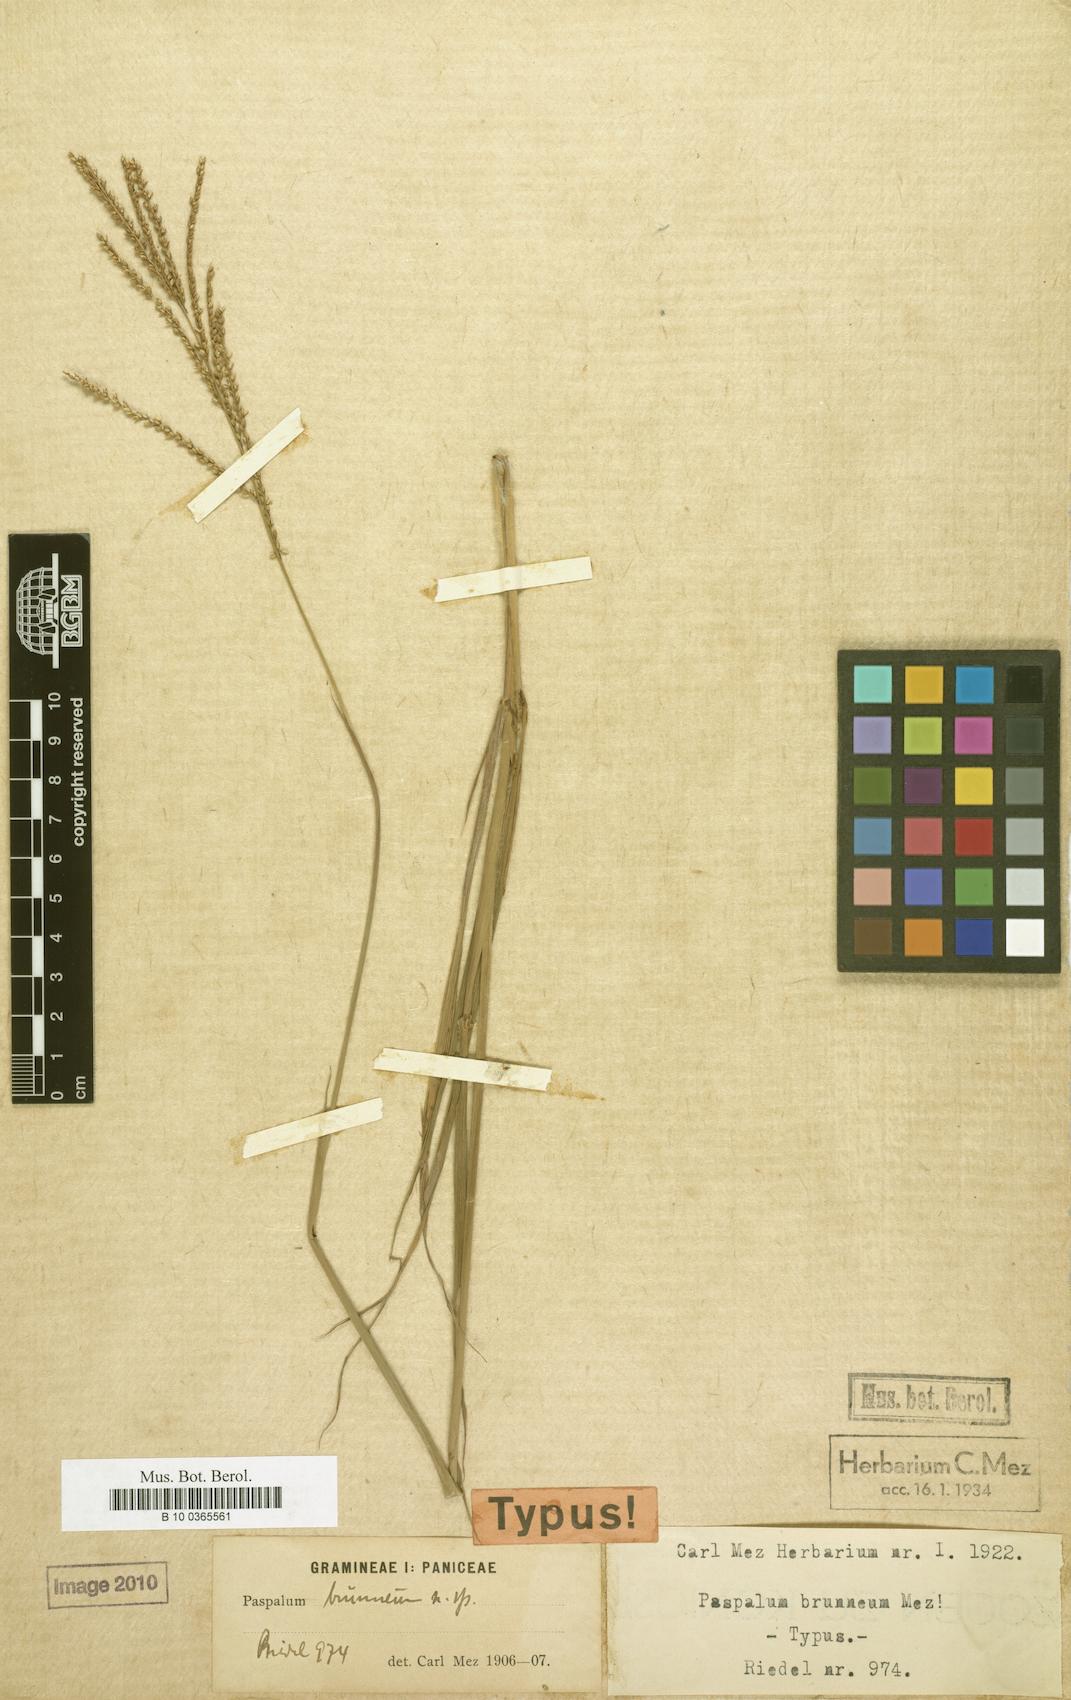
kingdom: Plantae
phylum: Tracheophyta
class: Liliopsida
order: Poales
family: Poaceae
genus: Paspalum
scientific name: Paspalum coryphaeum
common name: Emperor crowngrass
